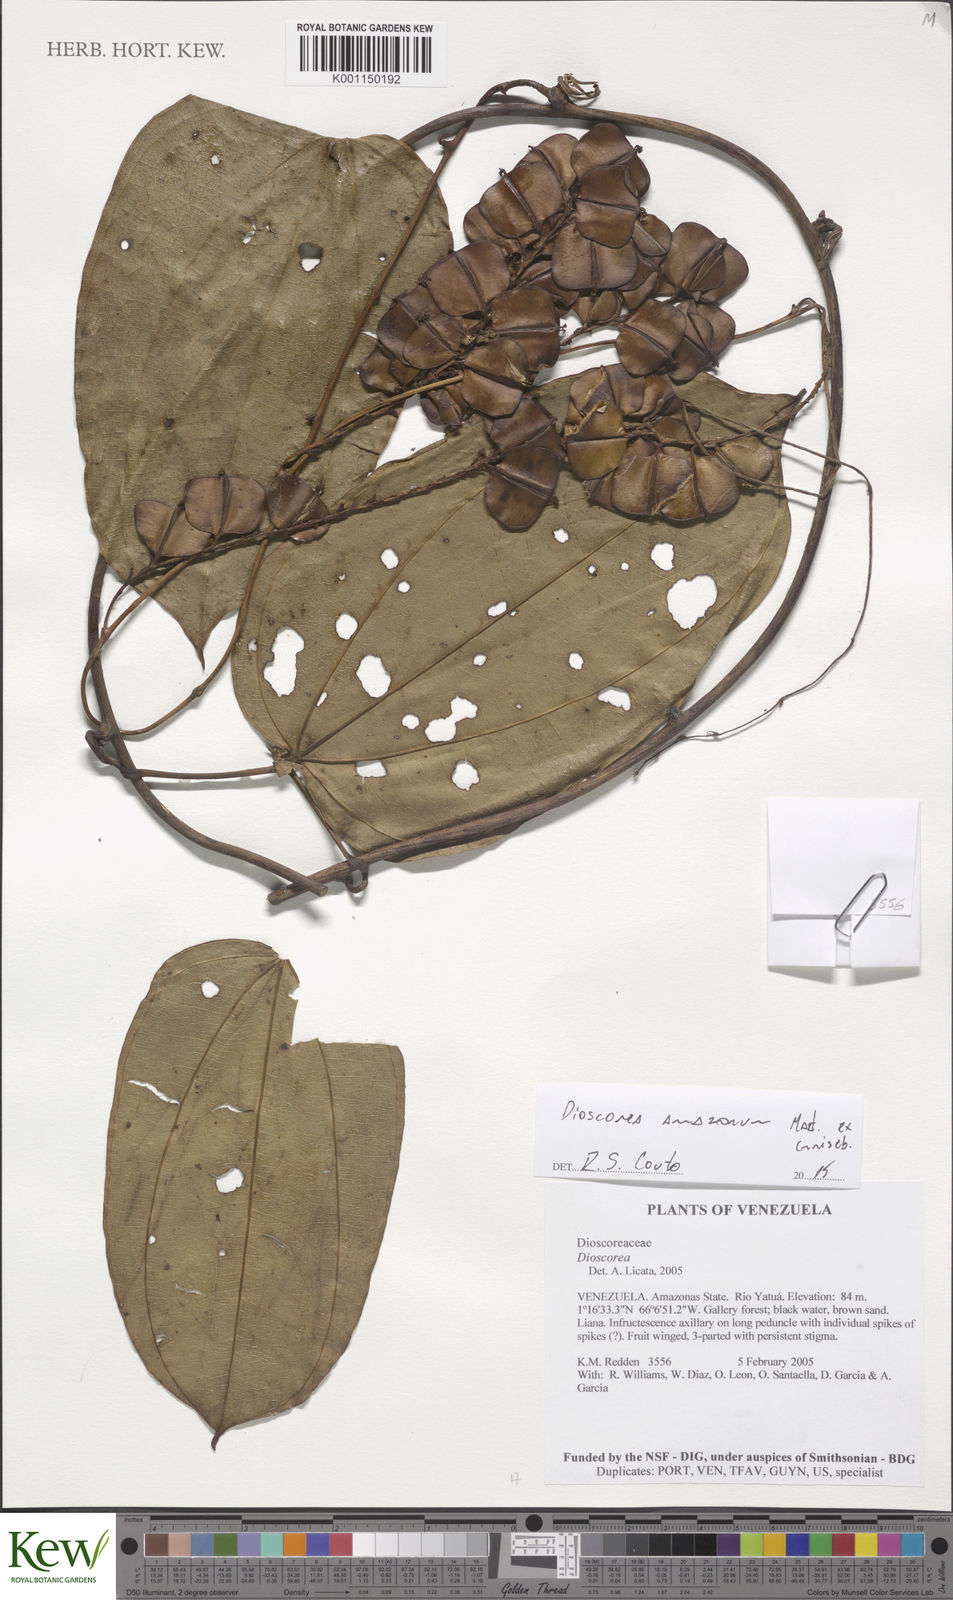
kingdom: Plantae
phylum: Tracheophyta
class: Liliopsida
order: Dioscoreales
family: Dioscoreaceae
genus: Dioscorea
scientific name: Dioscorea amazonum
